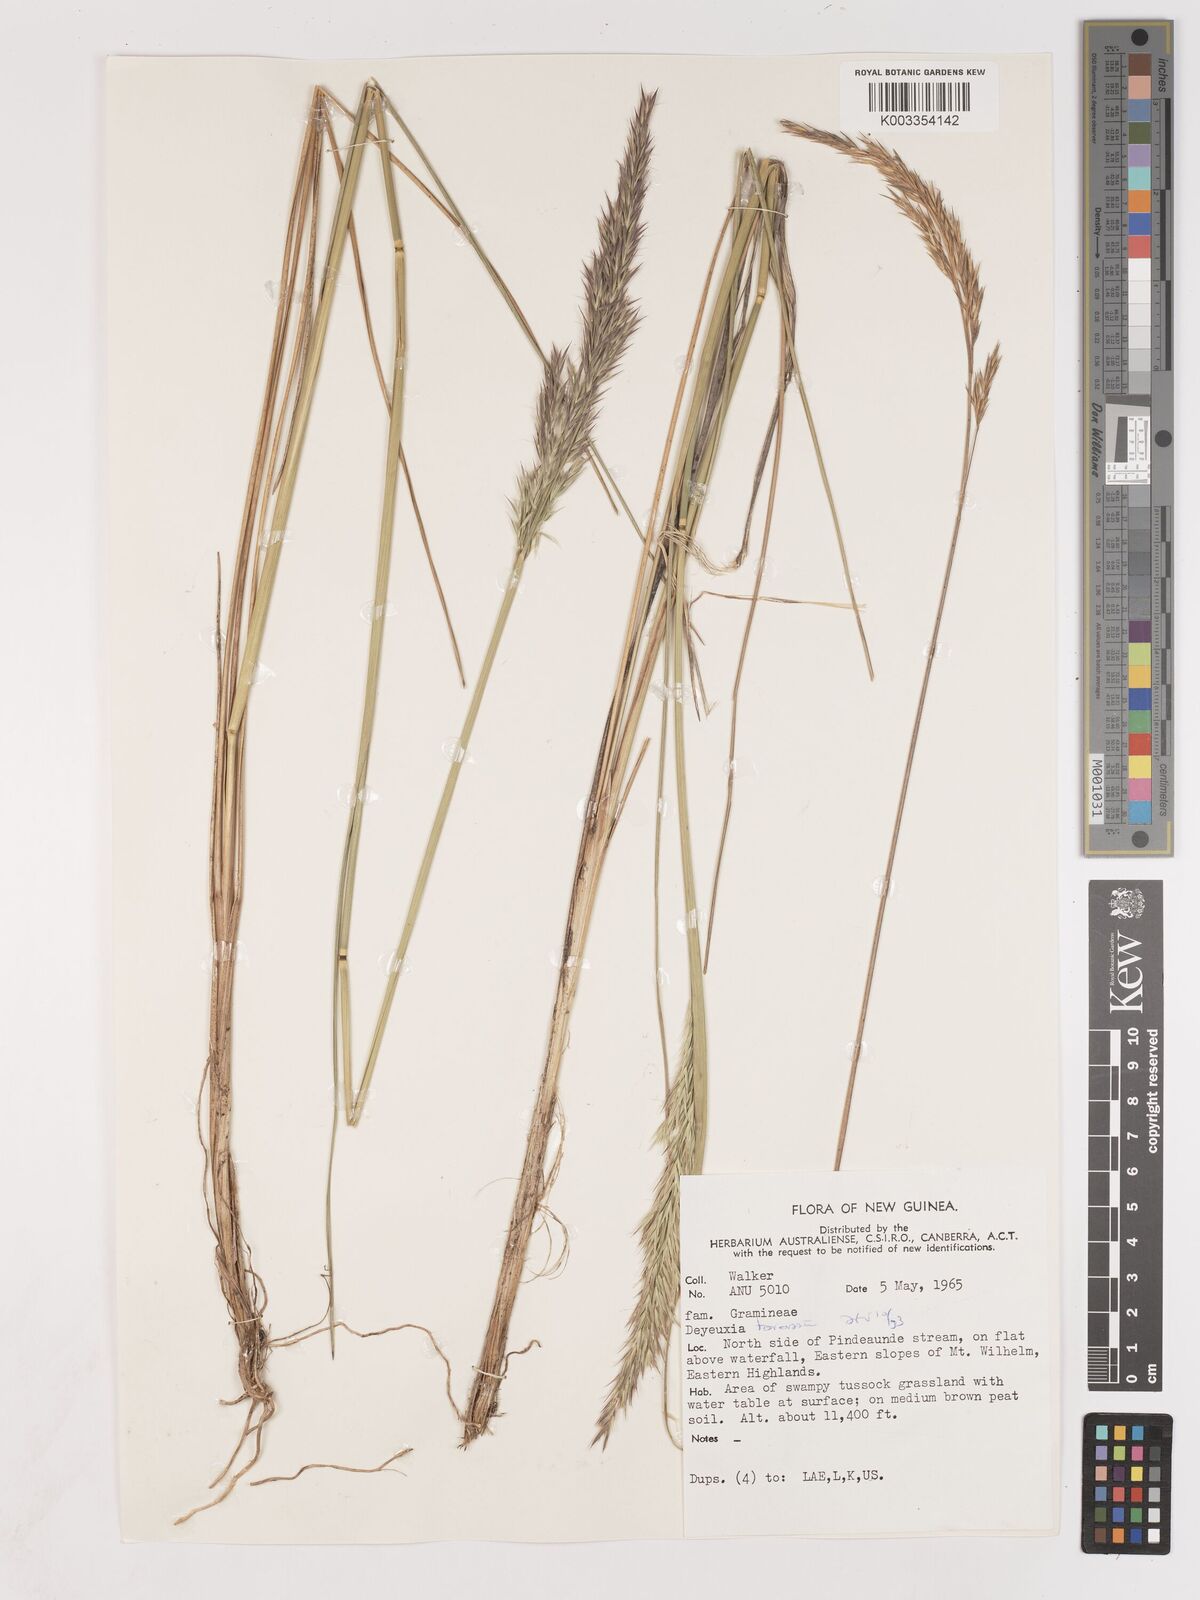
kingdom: Plantae
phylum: Tracheophyta
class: Liliopsida
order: Poales
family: Poaceae
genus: Calamagrostis
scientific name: Calamagrostis brassii
